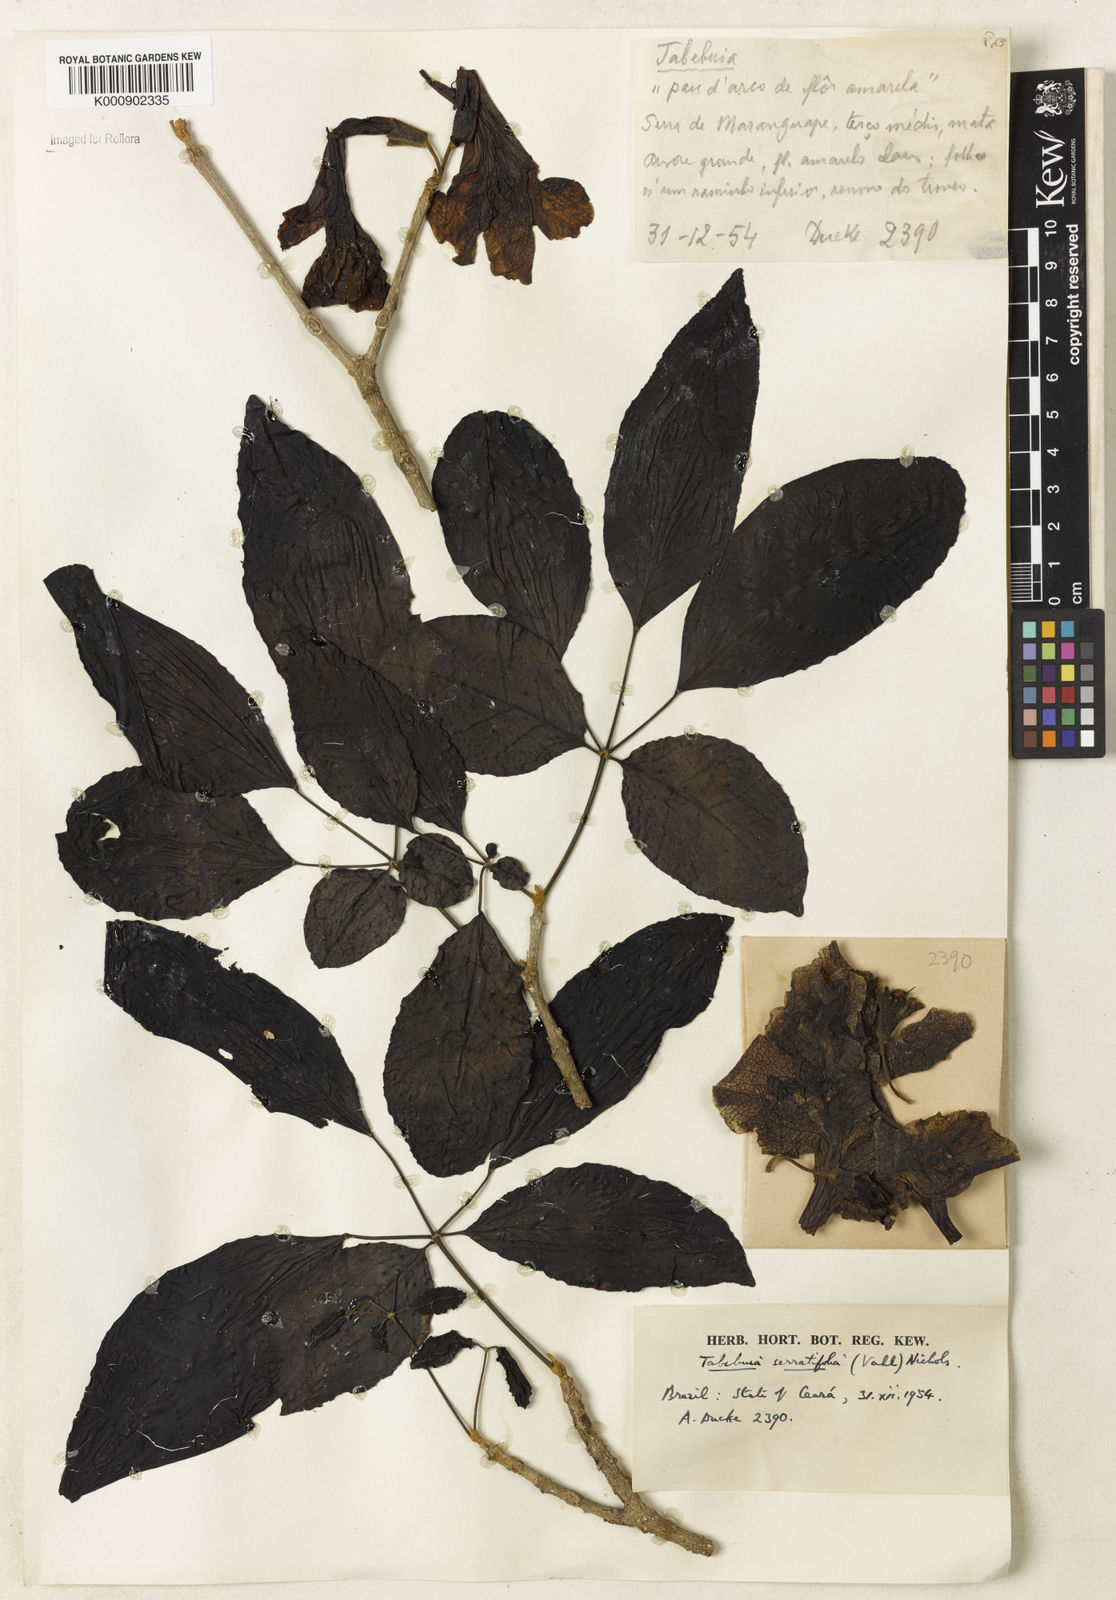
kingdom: Plantae
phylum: Tracheophyta
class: Magnoliopsida
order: Lamiales
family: Bignoniaceae
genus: Handroanthus
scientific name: Handroanthus serratifolius
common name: Yellow ipe
